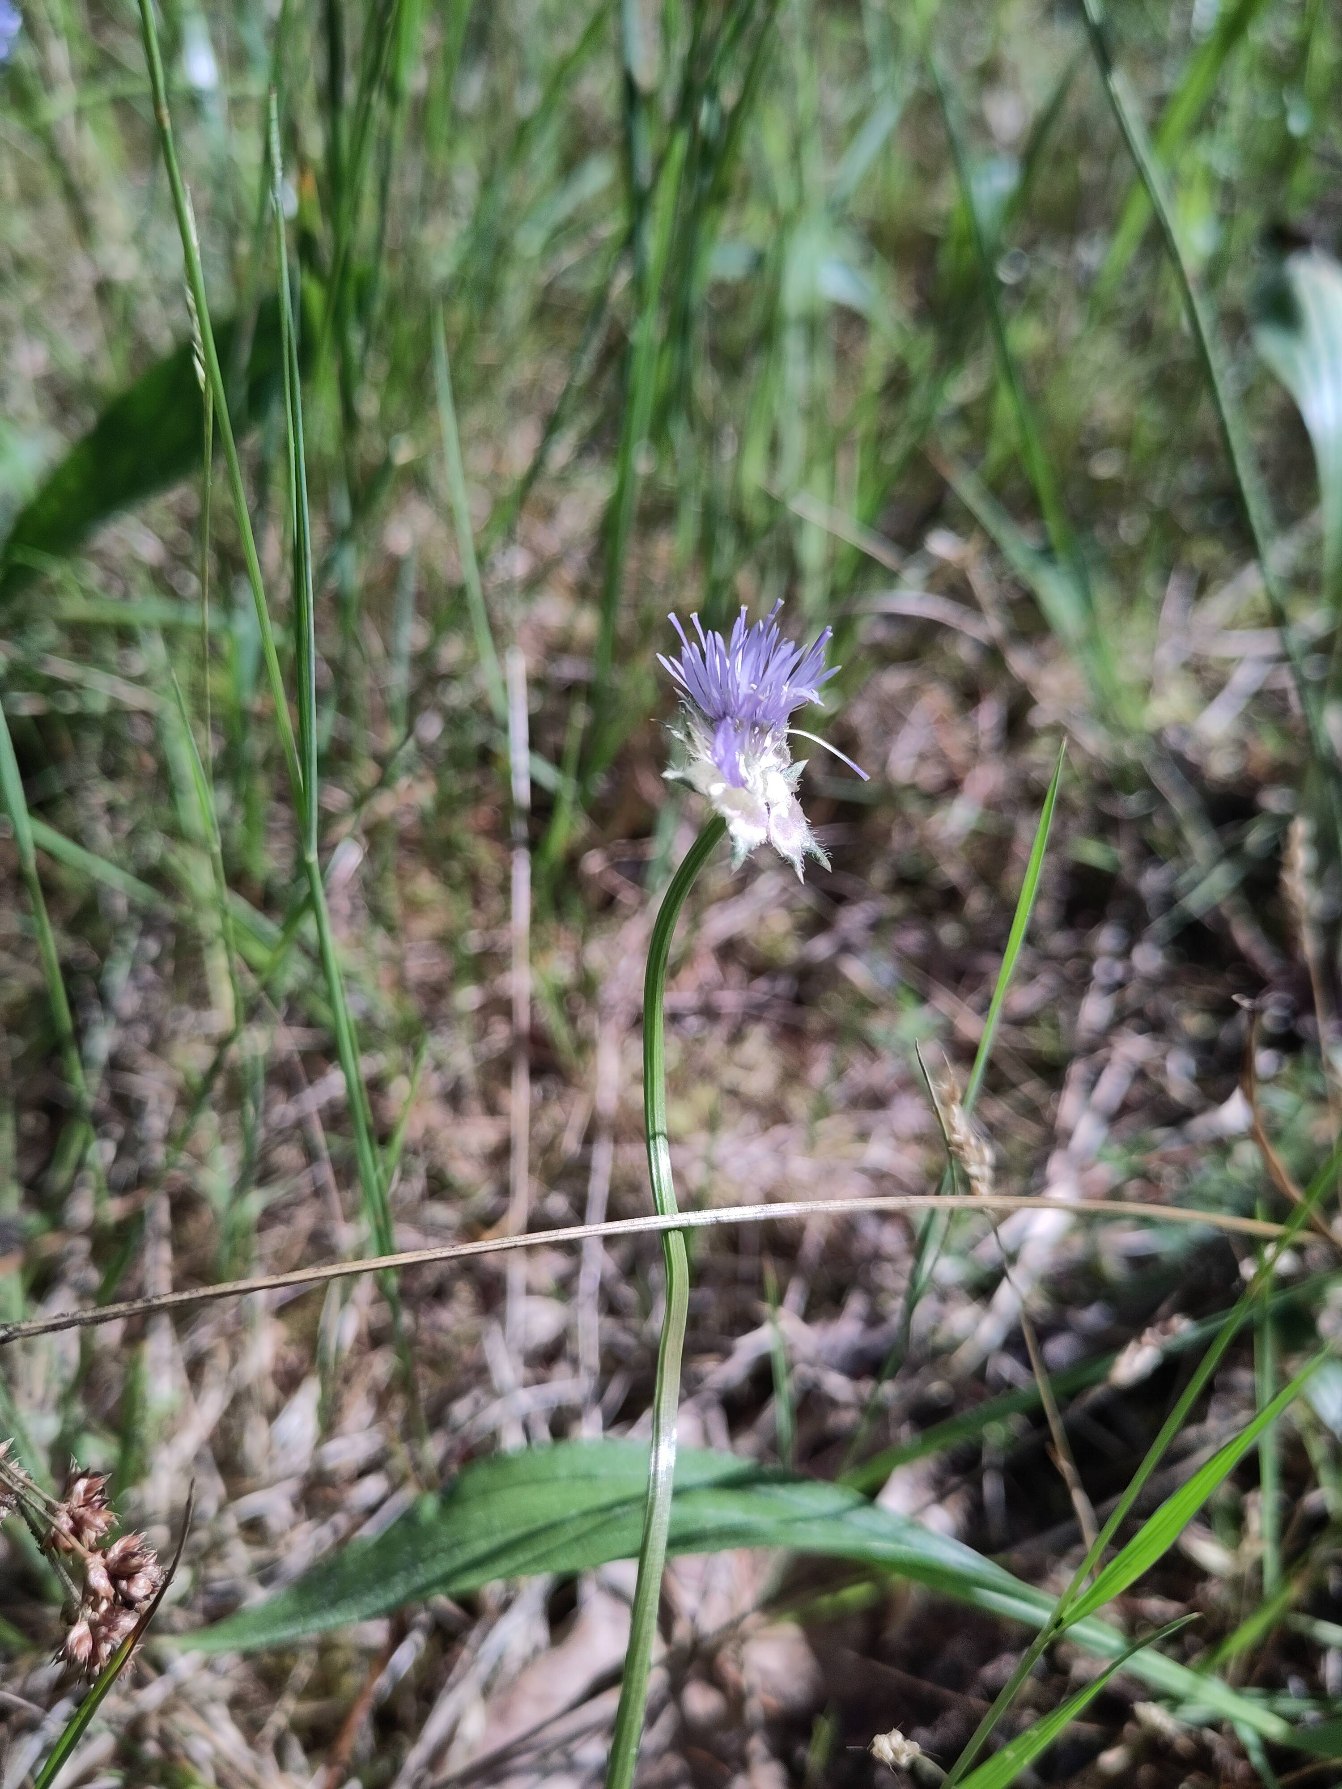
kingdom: Plantae
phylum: Tracheophyta
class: Magnoliopsida
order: Asterales
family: Campanulaceae
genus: Jasione
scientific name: Jasione montana
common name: Blåmunke
